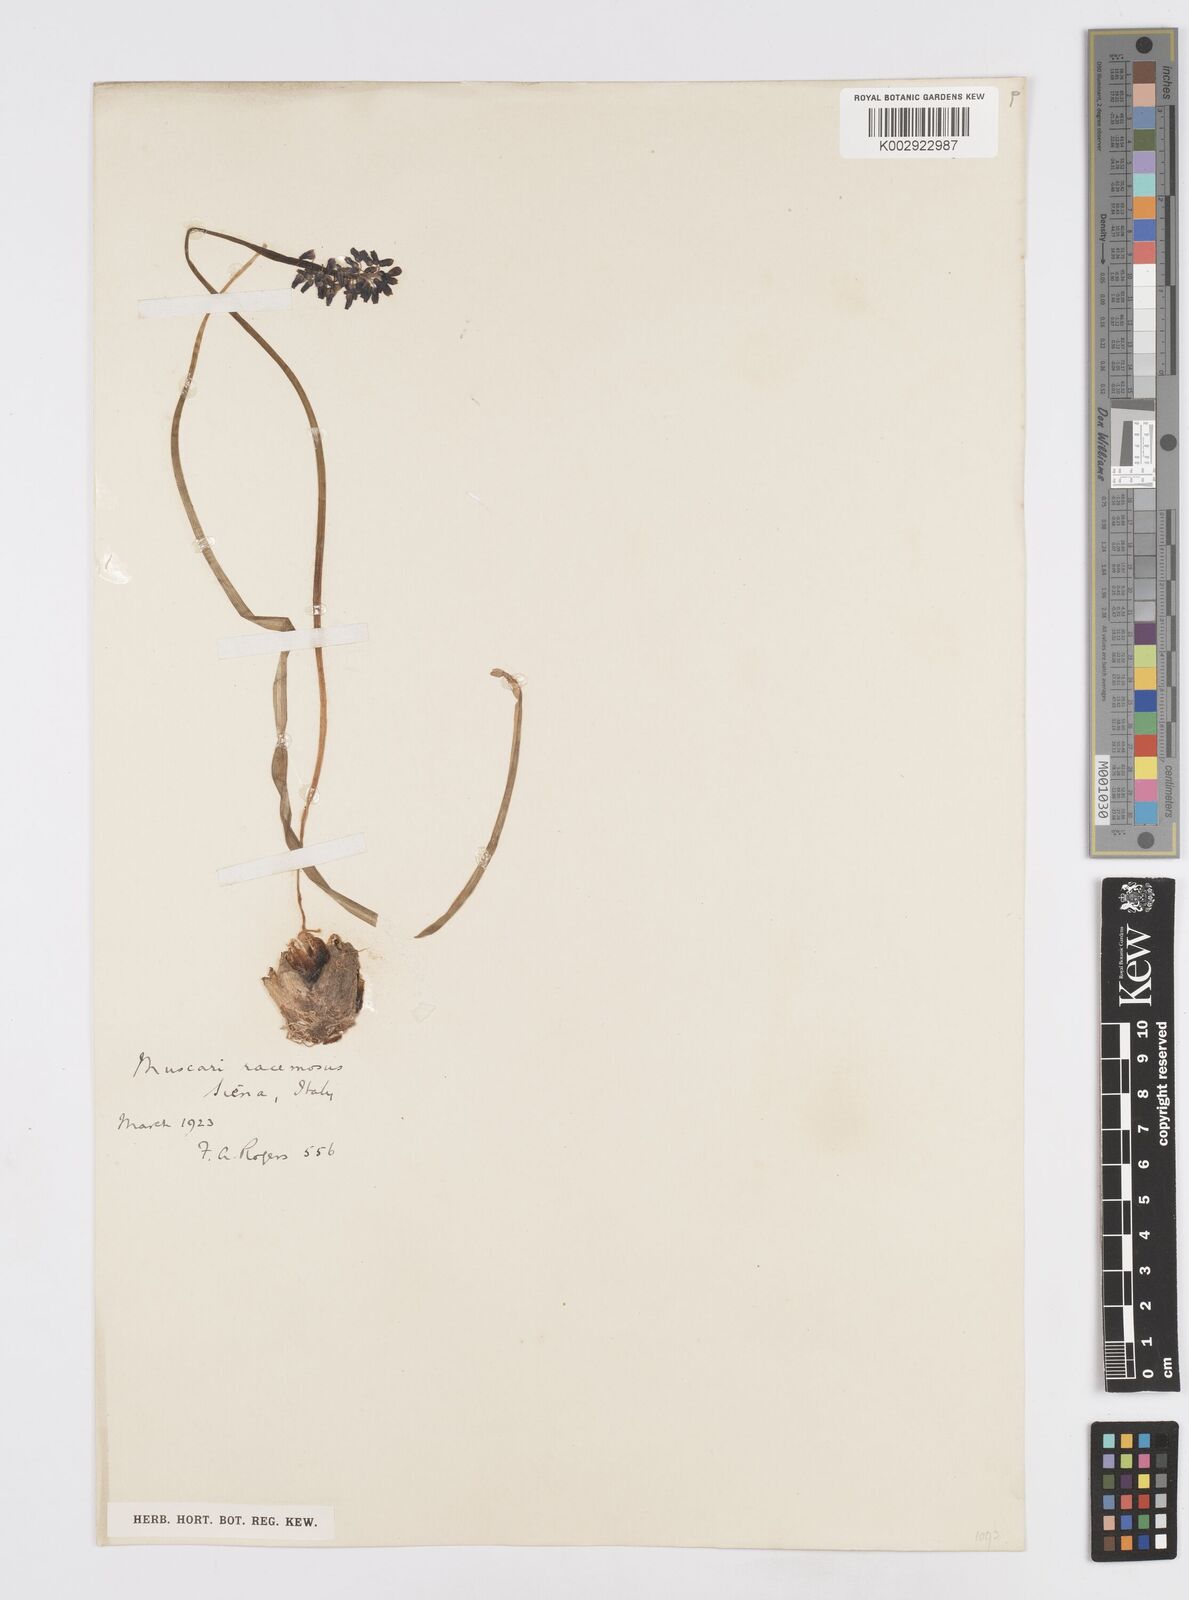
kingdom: Plantae
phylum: Tracheophyta
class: Liliopsida
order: Asparagales
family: Asparagaceae
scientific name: Asparagaceae
